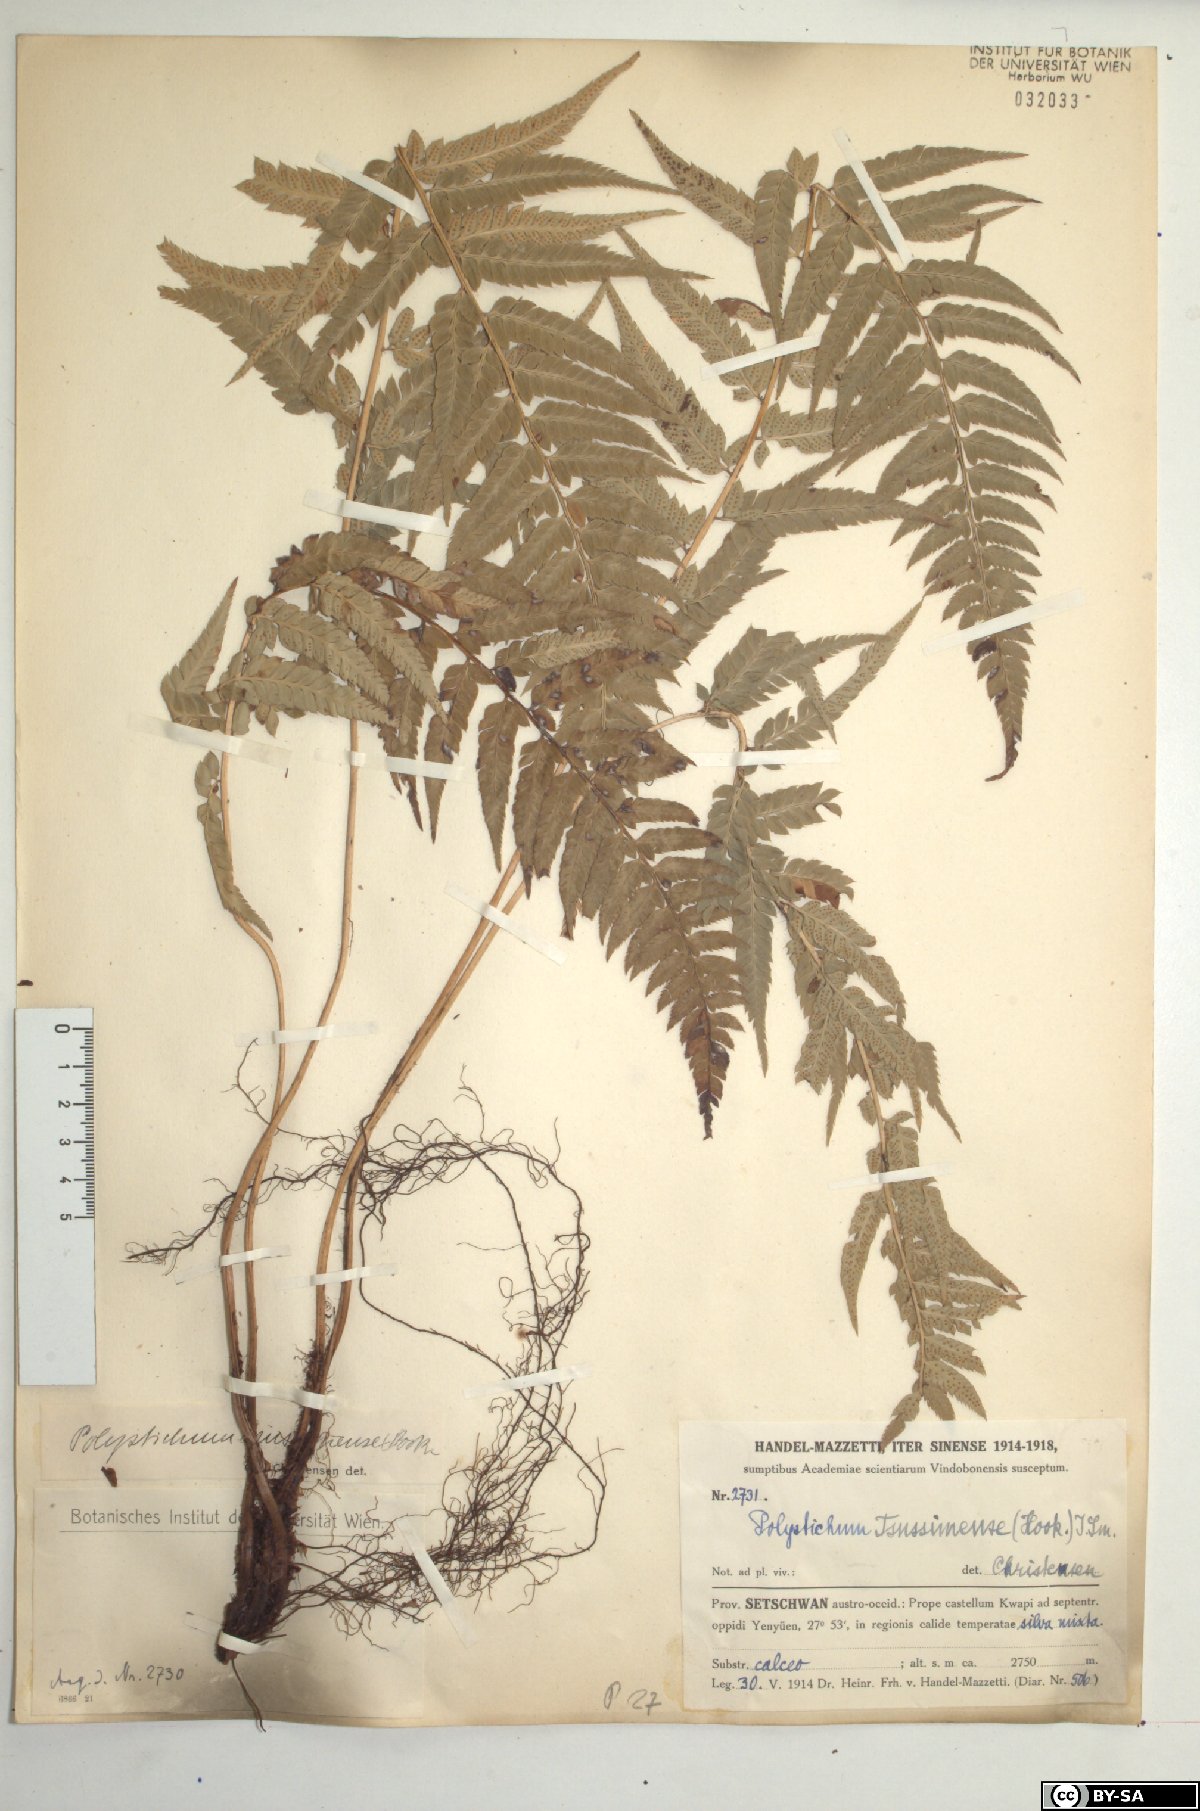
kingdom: Plantae
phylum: Tracheophyta
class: Polypodiopsida
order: Polypodiales
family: Dryopteridaceae
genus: Polystichum
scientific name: Polystichum luctuosum
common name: Korean rockfern
